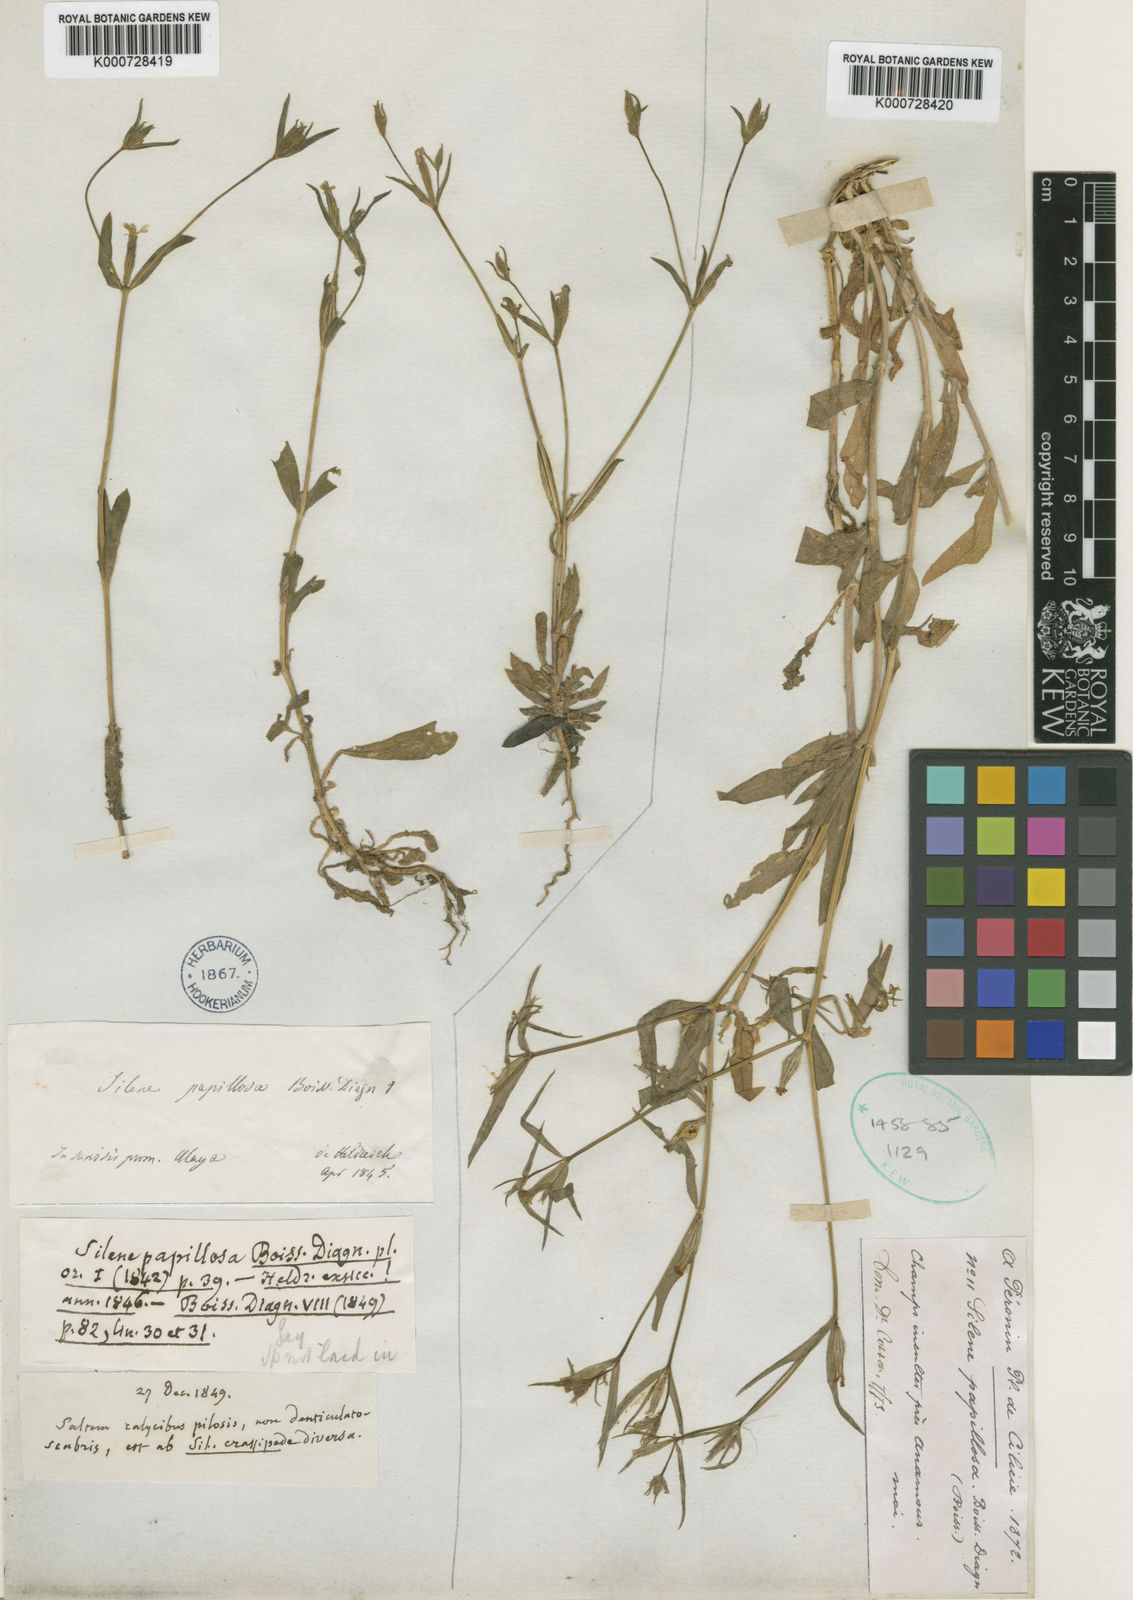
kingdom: Plantae
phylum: Tracheophyta
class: Magnoliopsida
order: Caryophyllales
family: Caryophyllaceae
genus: Silene
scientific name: Silene papillosa
